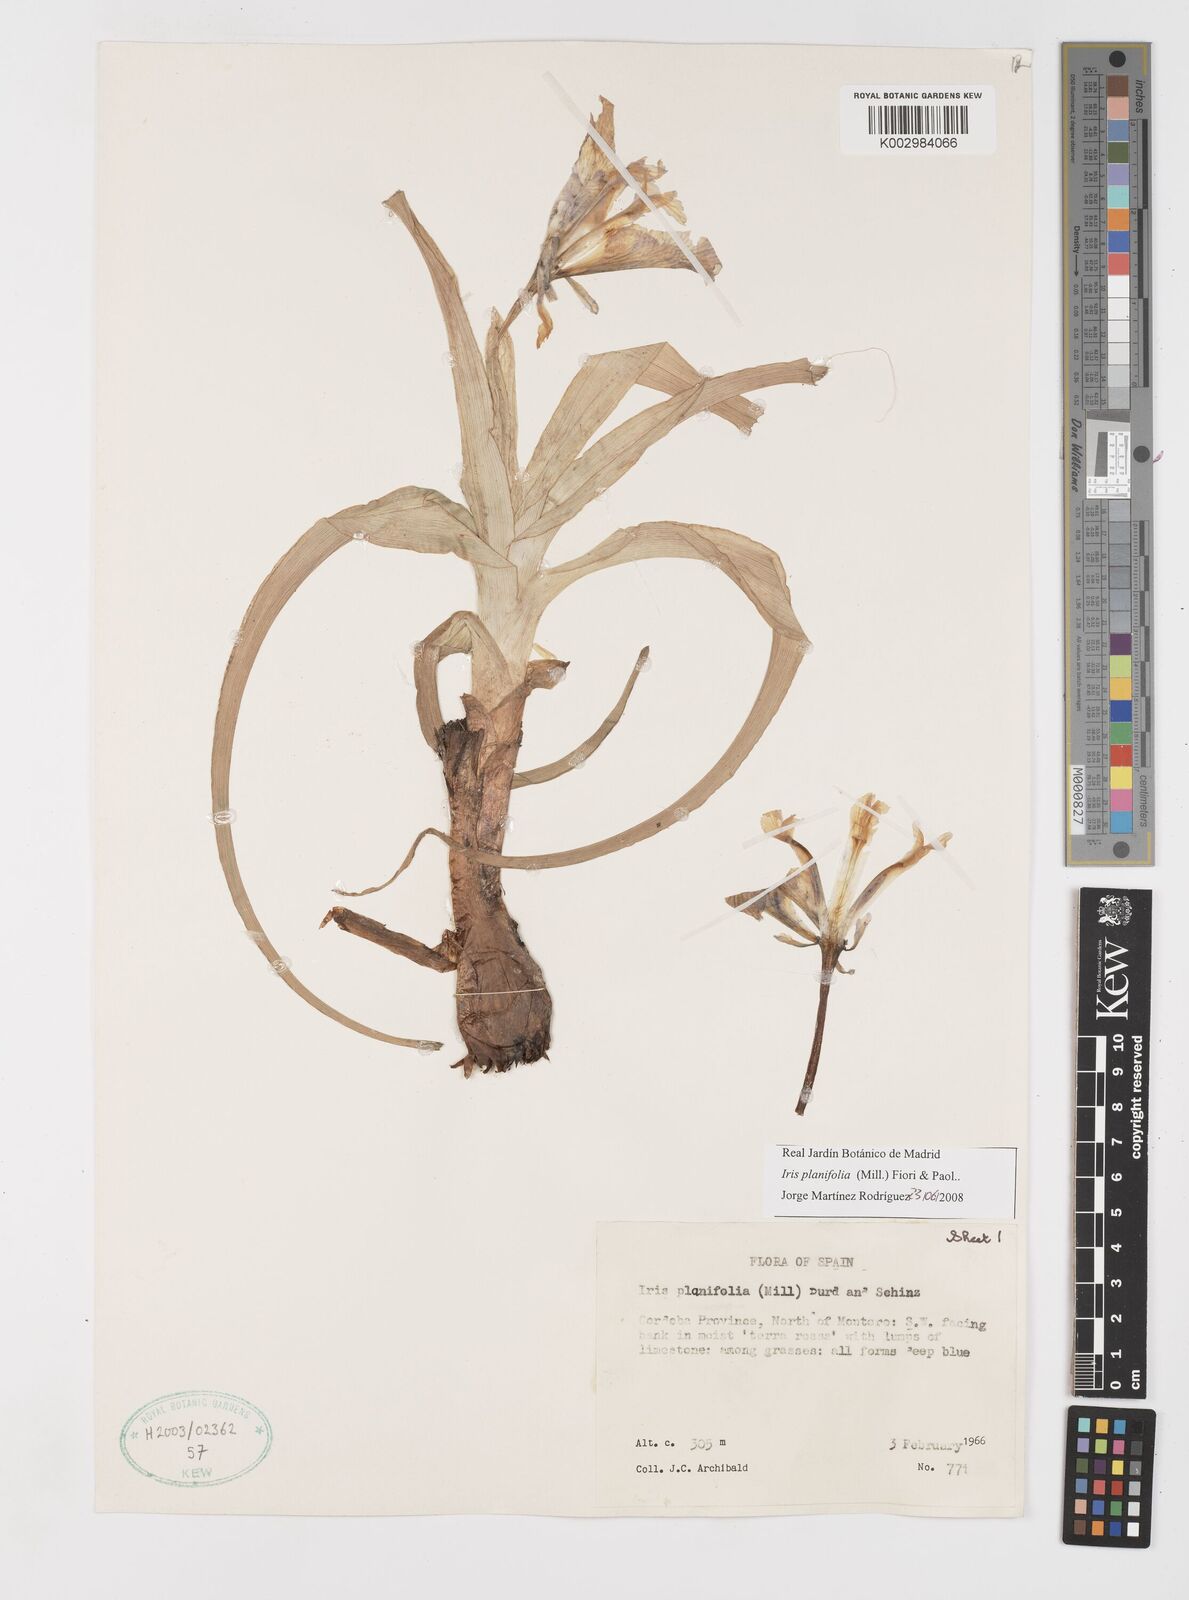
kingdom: Plantae
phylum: Tracheophyta
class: Liliopsida
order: Asparagales
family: Iridaceae
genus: Iris
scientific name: Iris planifolia
